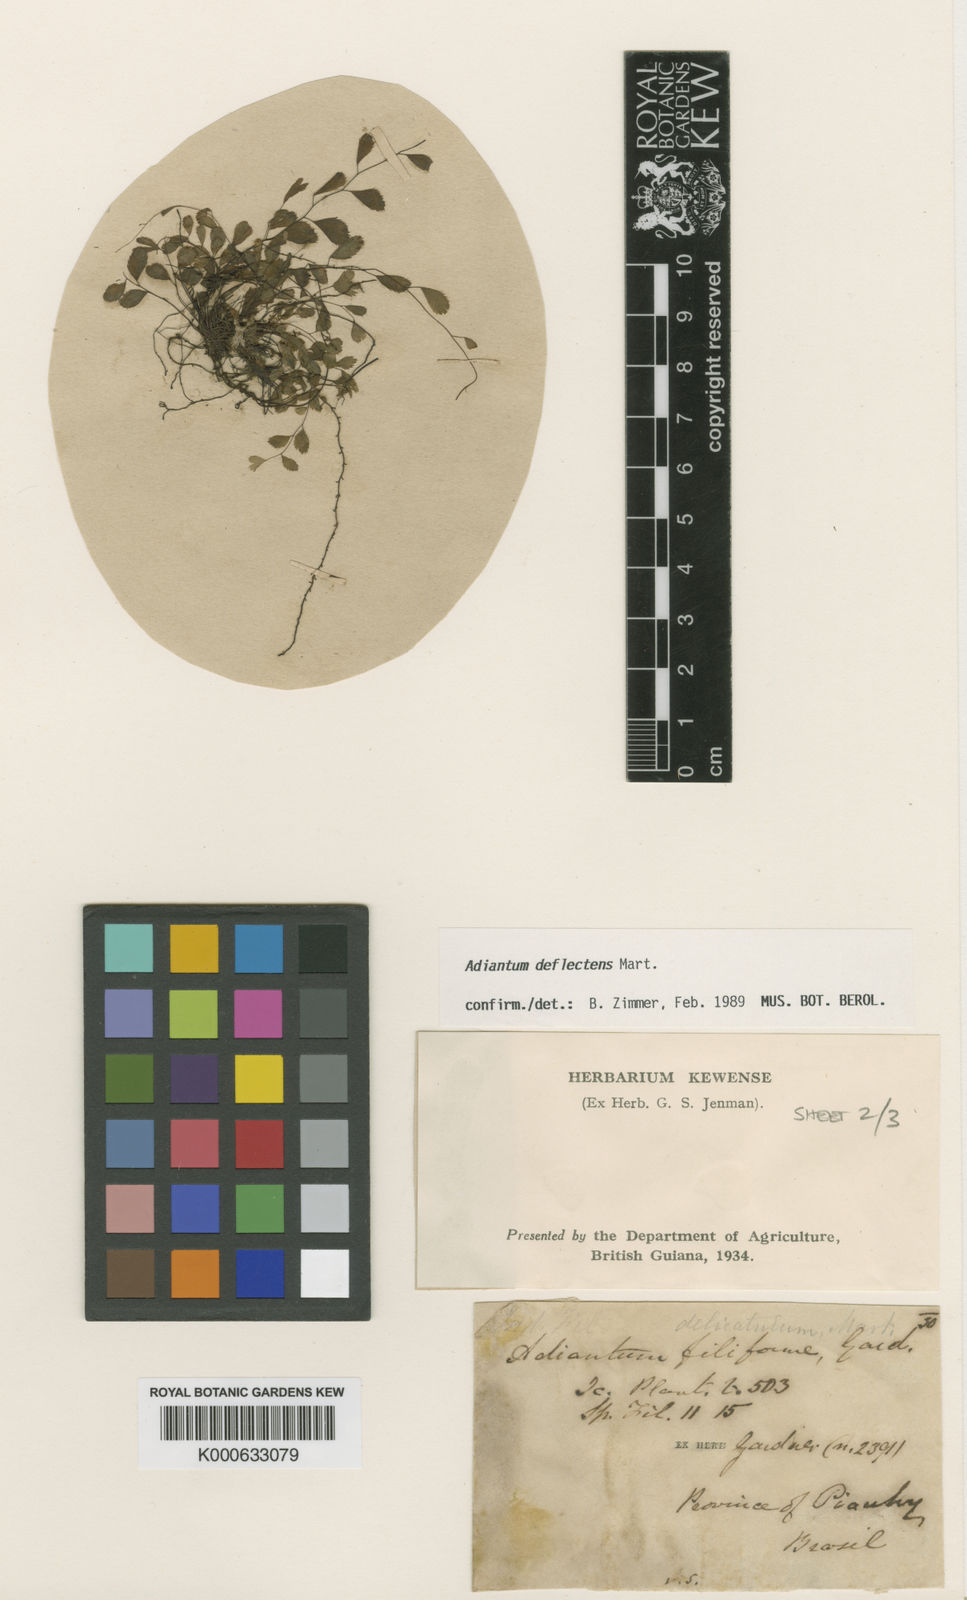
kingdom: Plantae
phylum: Tracheophyta
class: Polypodiopsida
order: Polypodiales
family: Pteridaceae
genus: Adiantum
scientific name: Adiantum delicatulum
